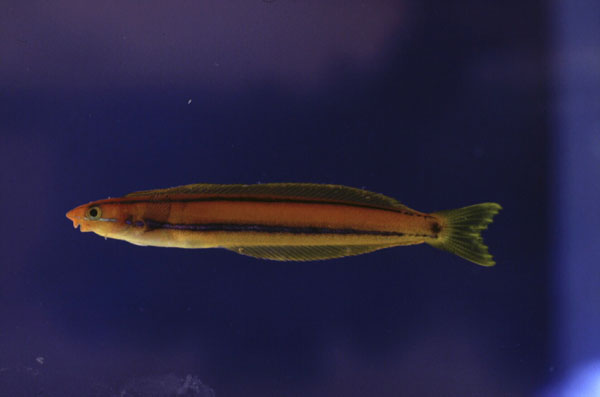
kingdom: Animalia
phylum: Chordata
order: Perciformes
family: Blenniidae
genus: Plagiotremus
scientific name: Plagiotremus rhinorhynchos
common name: Bluestriped fangblenny
